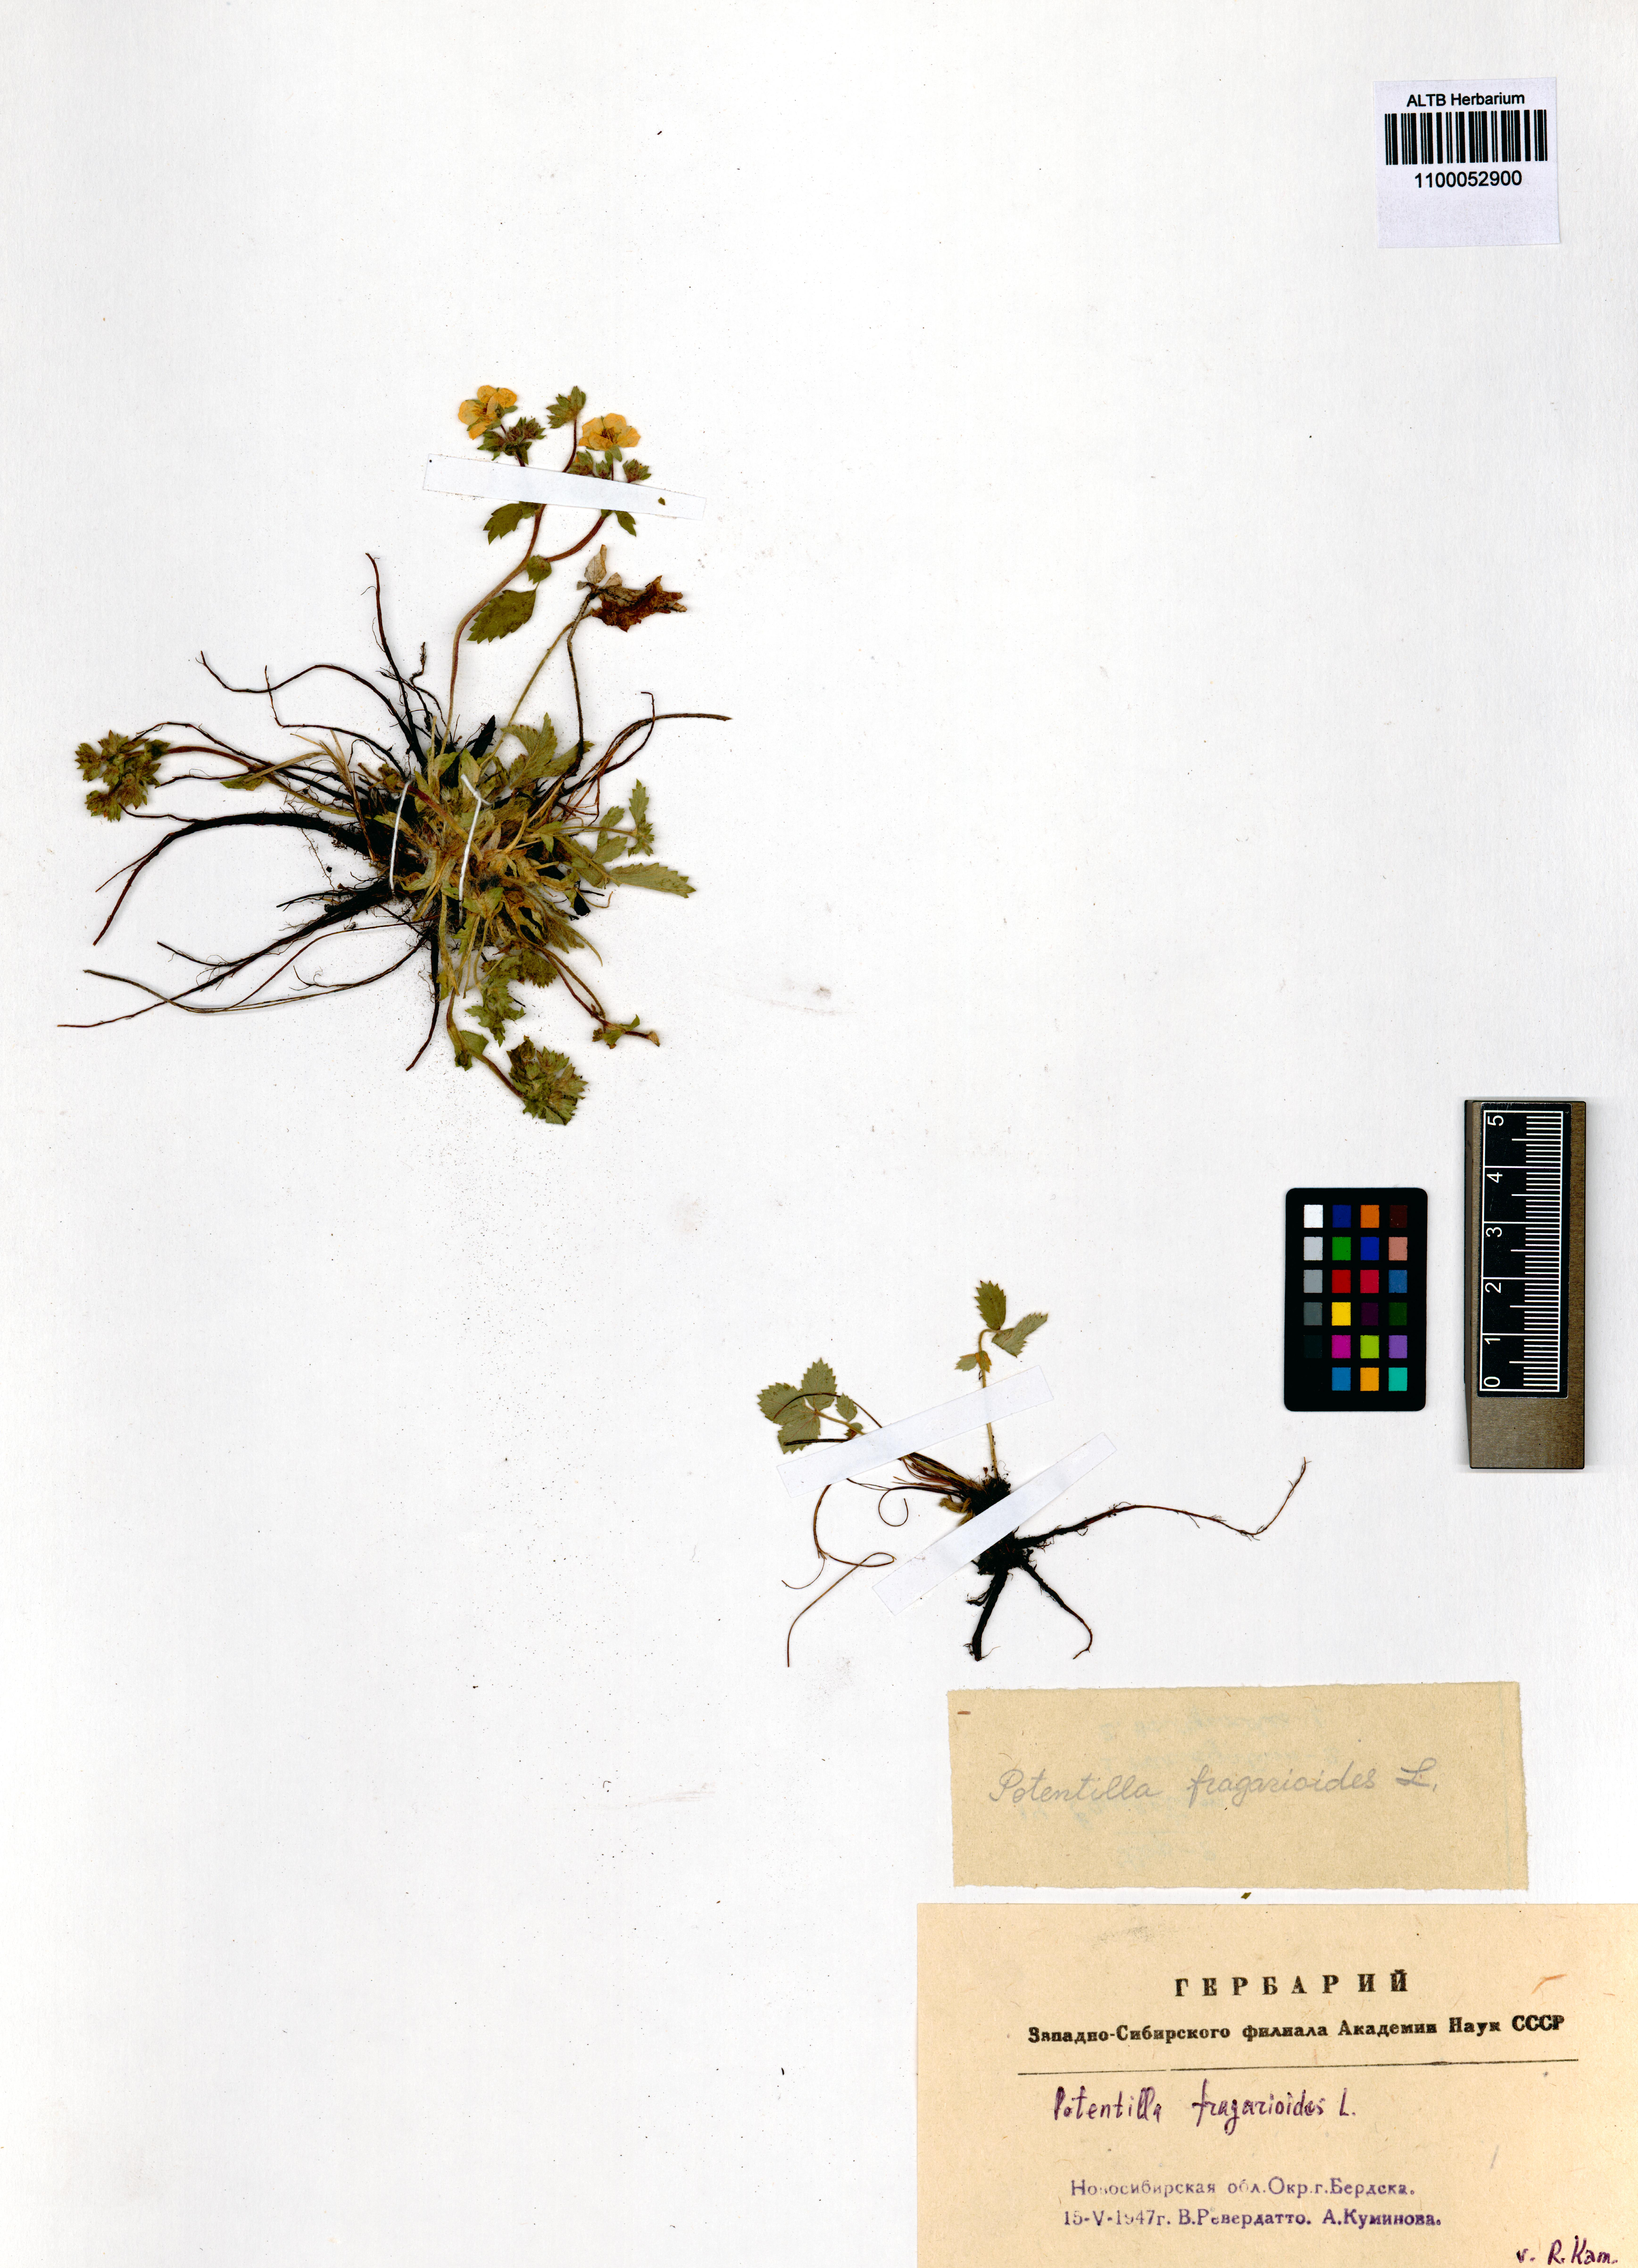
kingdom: Plantae
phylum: Tracheophyta
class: Magnoliopsida
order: Rosales
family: Rosaceae
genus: Potentilla
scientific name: Potentilla fragarioides
